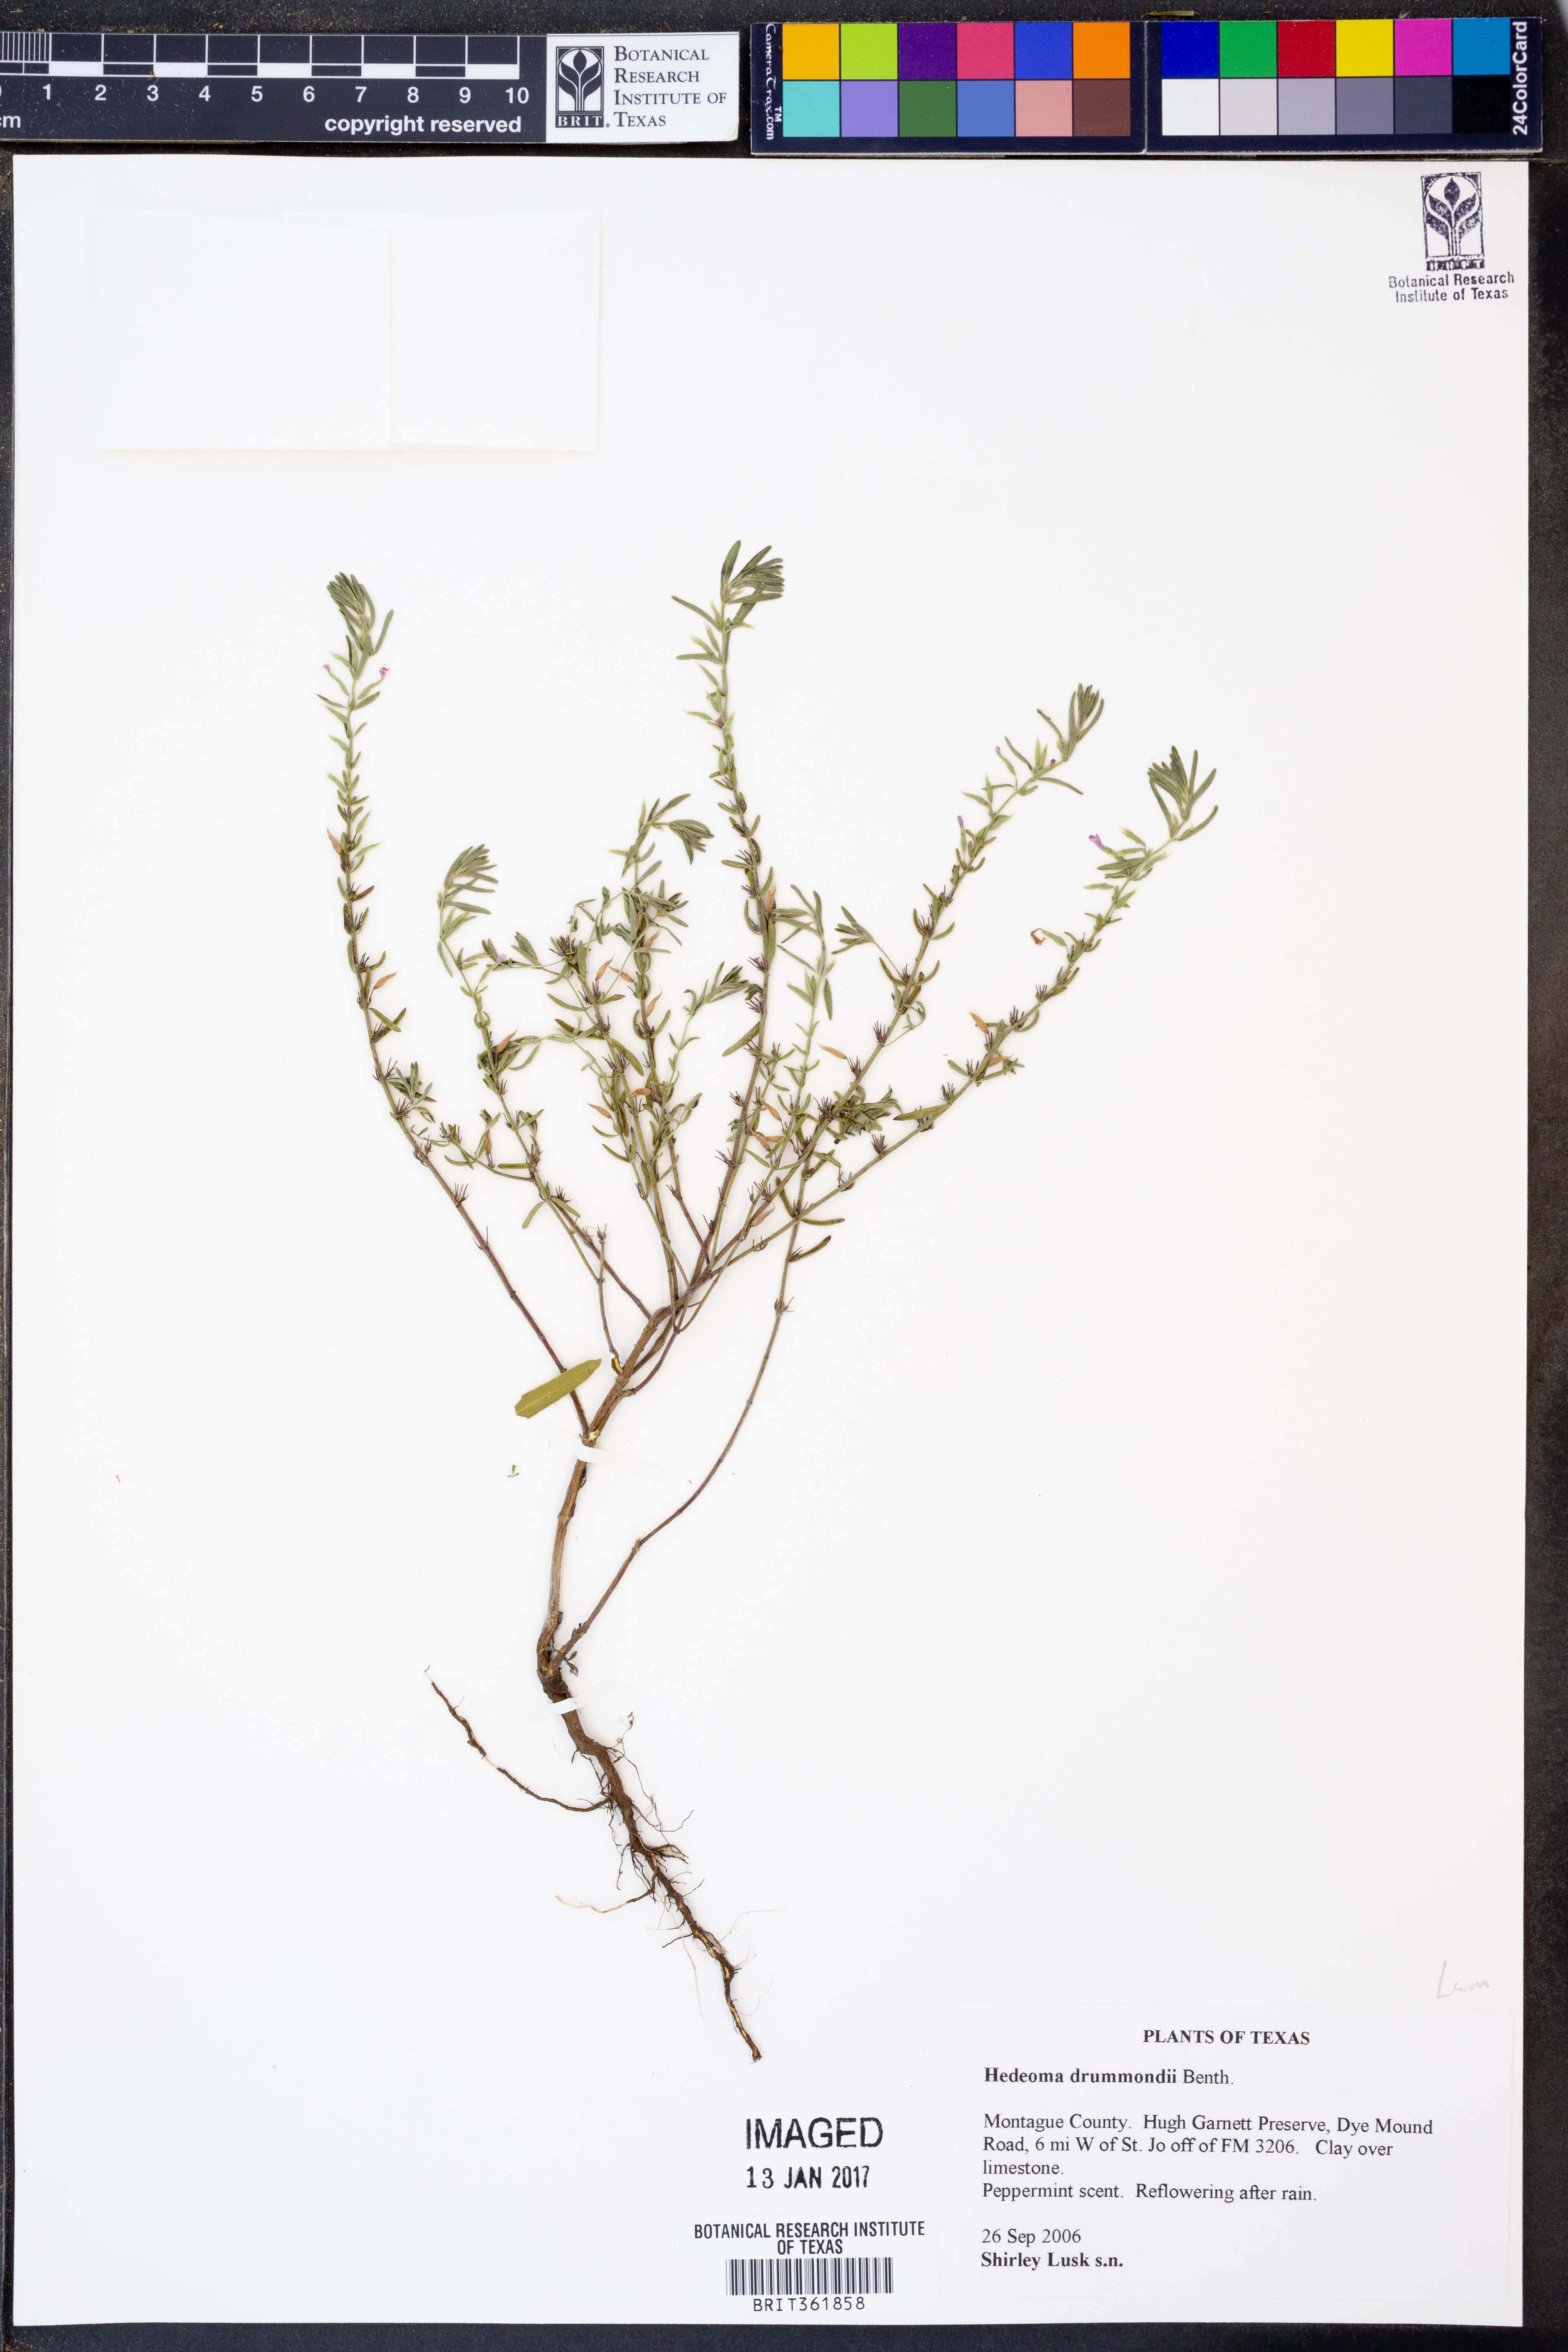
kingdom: Plantae
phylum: Tracheophyta
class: Magnoliopsida
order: Lamiales
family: Lamiaceae
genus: Hedeoma
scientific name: Hedeoma drummondii
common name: New mexico pennyroyal
